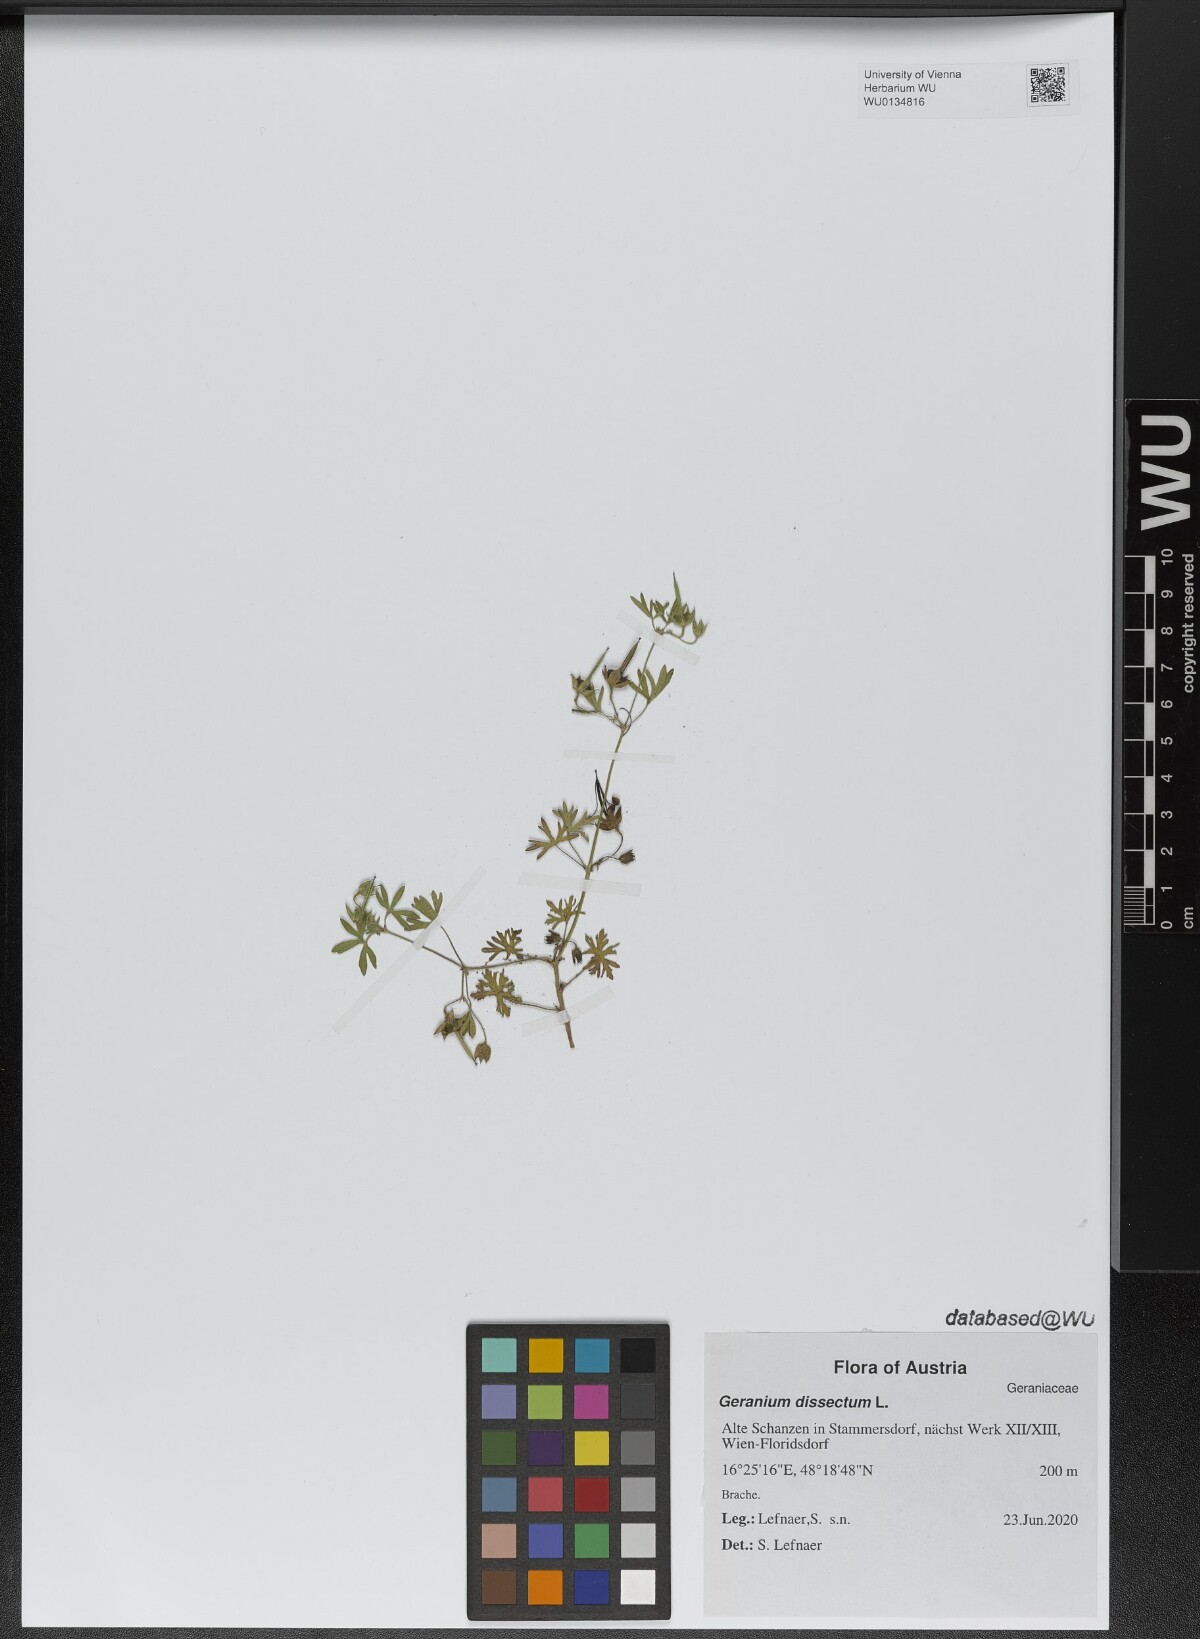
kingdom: Plantae
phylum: Tracheophyta
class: Magnoliopsida
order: Geraniales
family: Geraniaceae
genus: Geranium
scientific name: Geranium dissectum
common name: Cut-leaved crane's-bill
